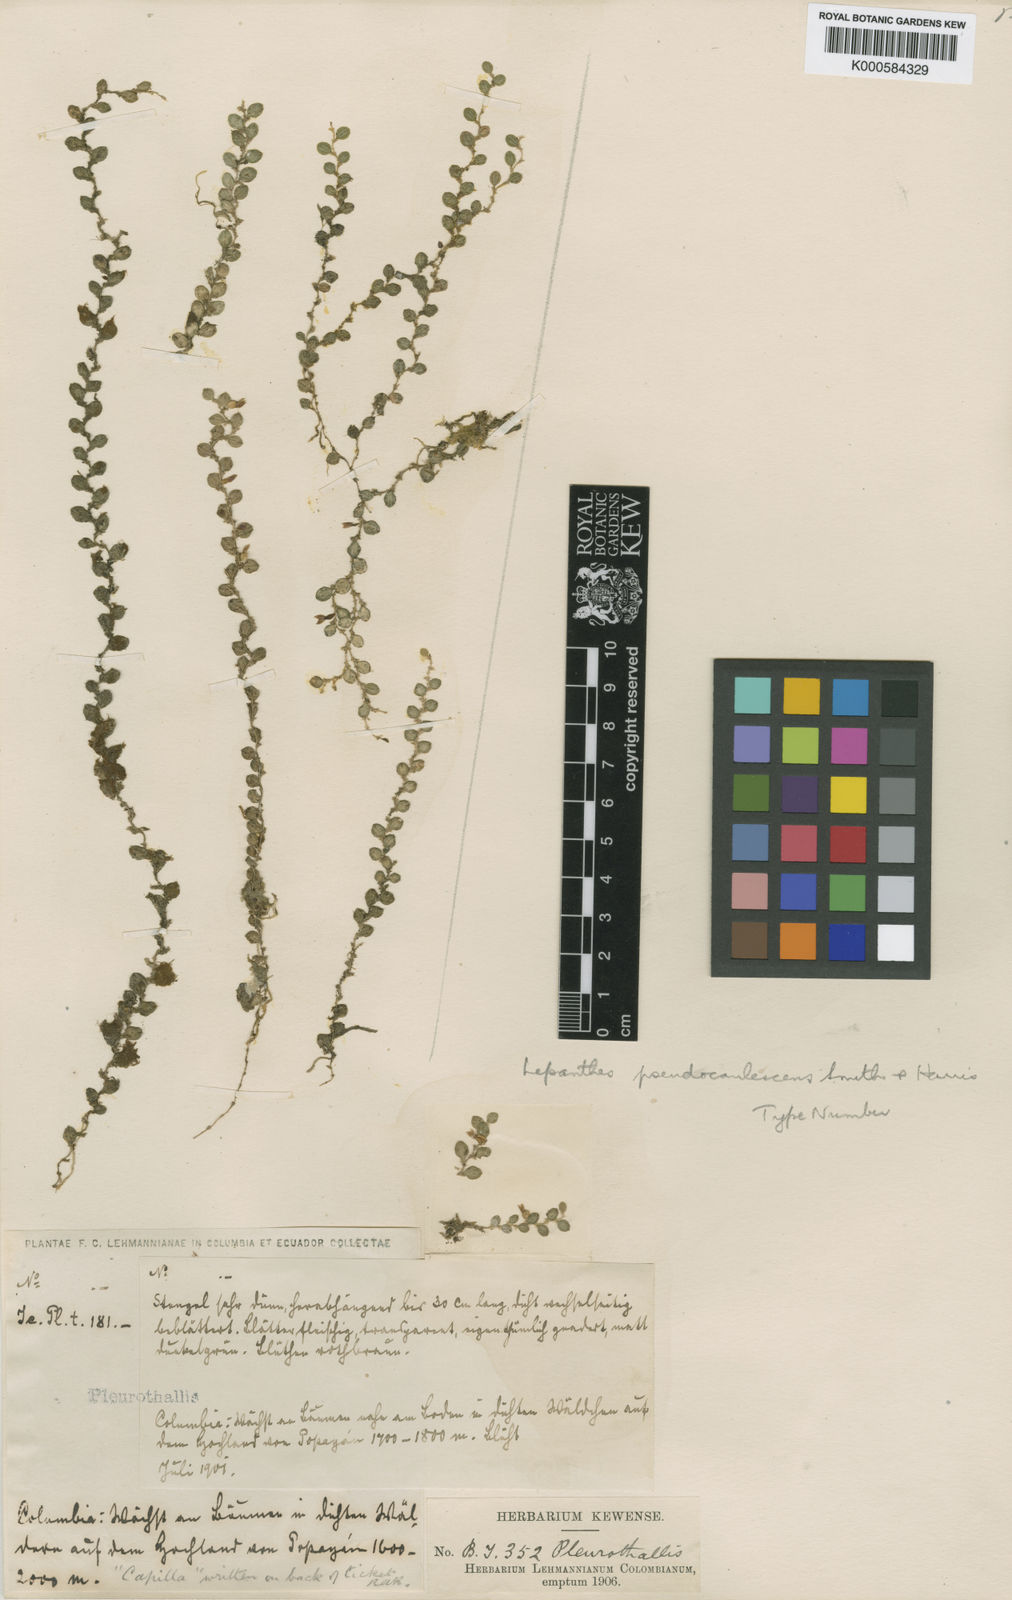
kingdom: Plantae
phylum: Tracheophyta
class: Liliopsida
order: Asparagales
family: Orchidaceae
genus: Andinia
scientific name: Andinia pseudocaulescens
